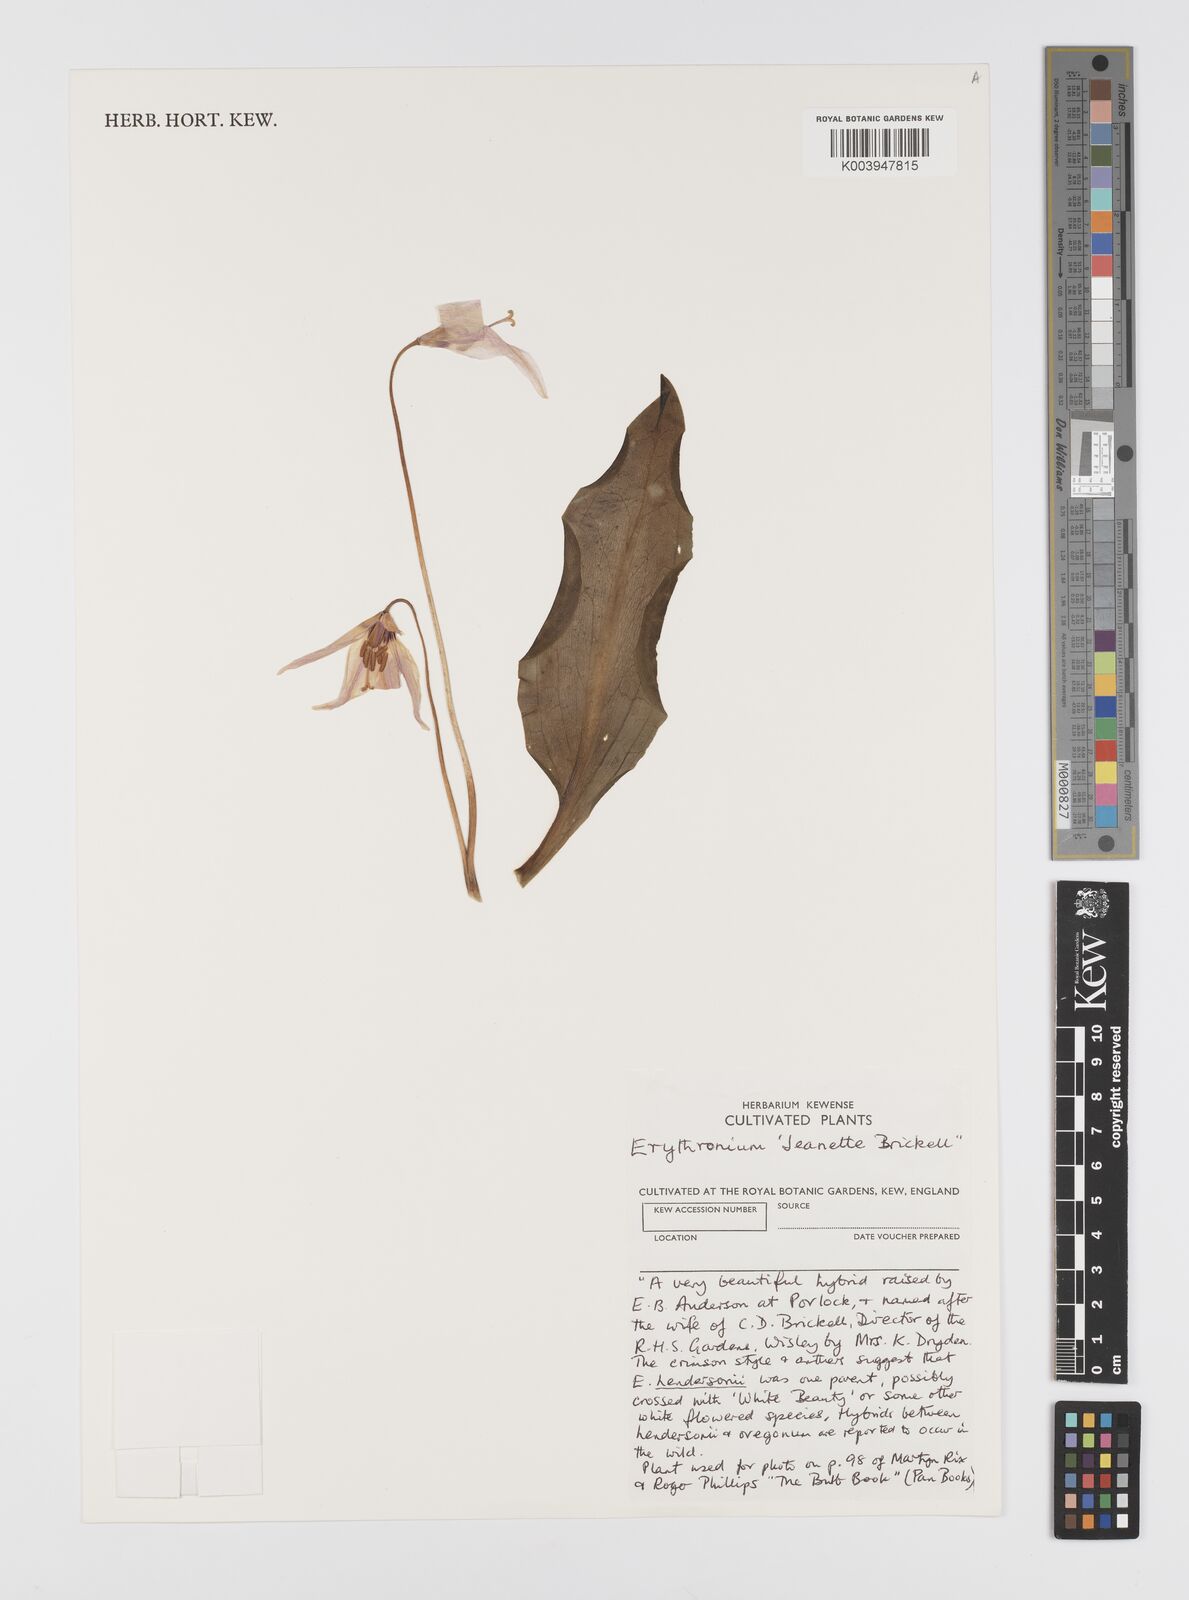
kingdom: Plantae
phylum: Tracheophyta
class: Liliopsida
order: Liliales
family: Liliaceae
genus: Erythronium
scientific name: Erythronium
